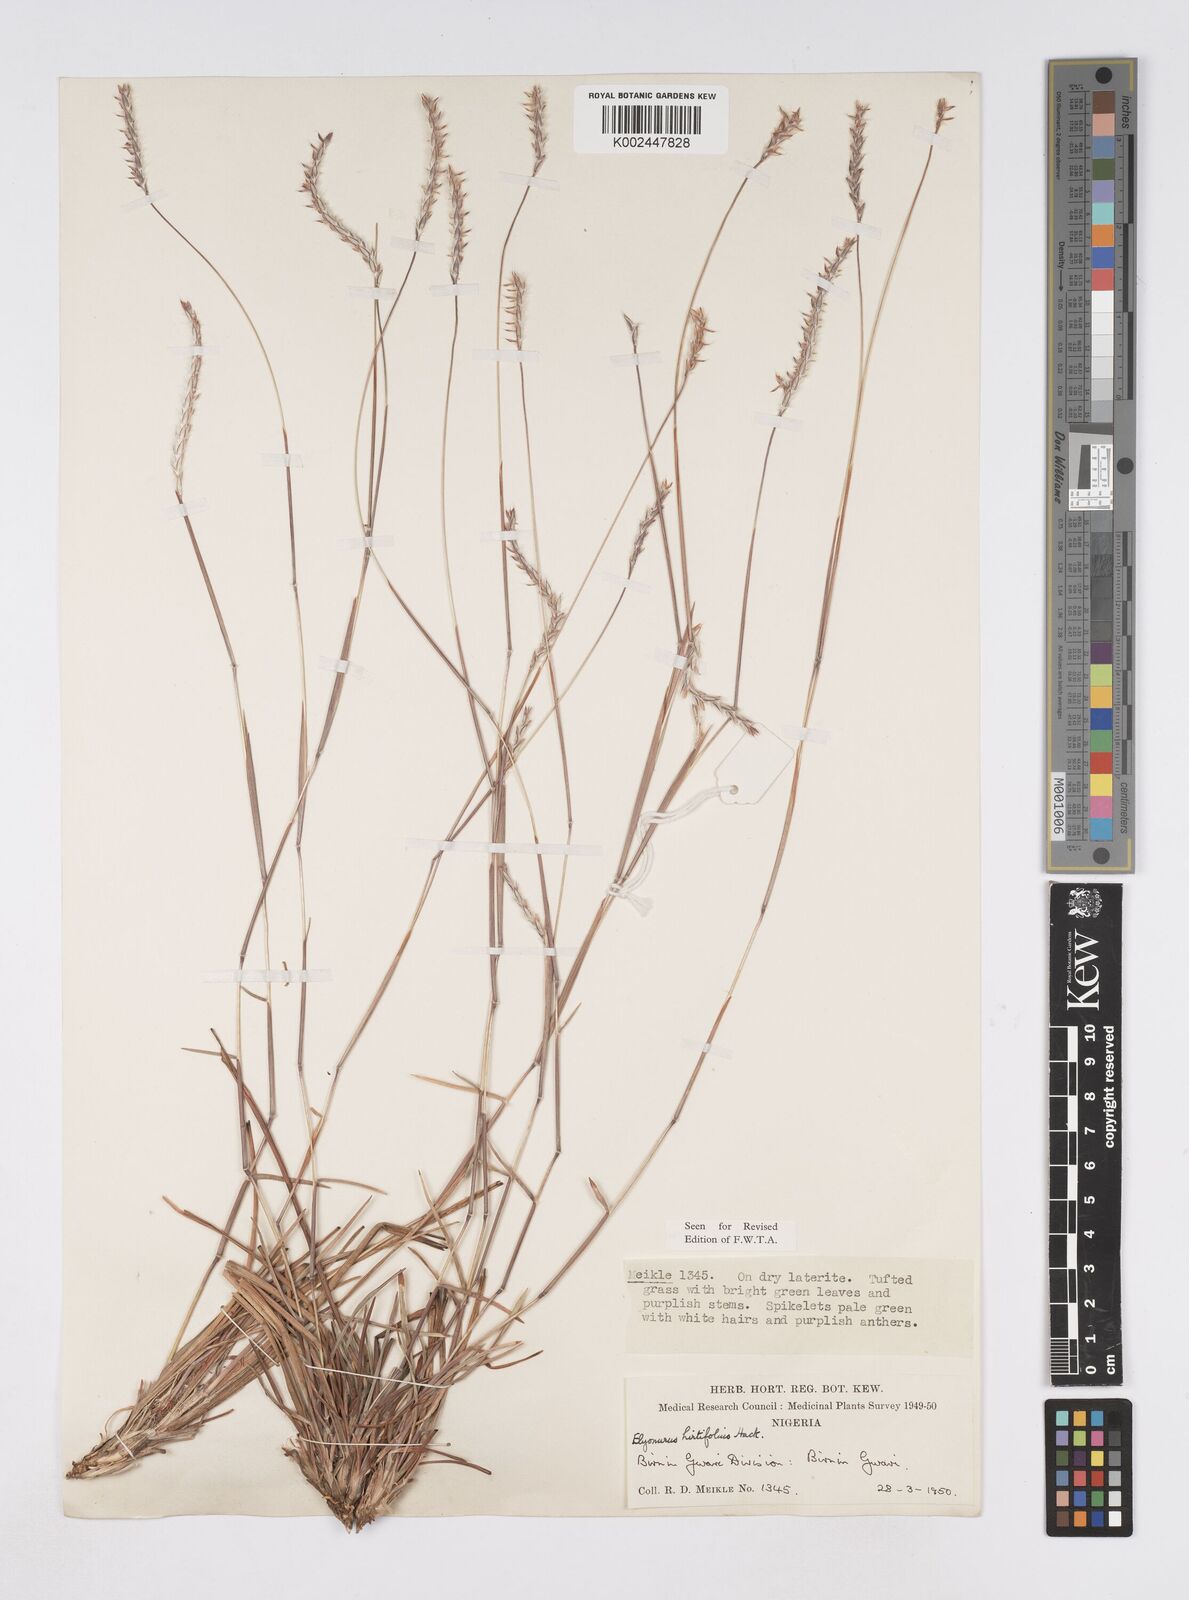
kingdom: Plantae
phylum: Tracheophyta
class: Liliopsida
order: Poales
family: Poaceae
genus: Elionurus
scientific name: Elionurus hirtifolius
